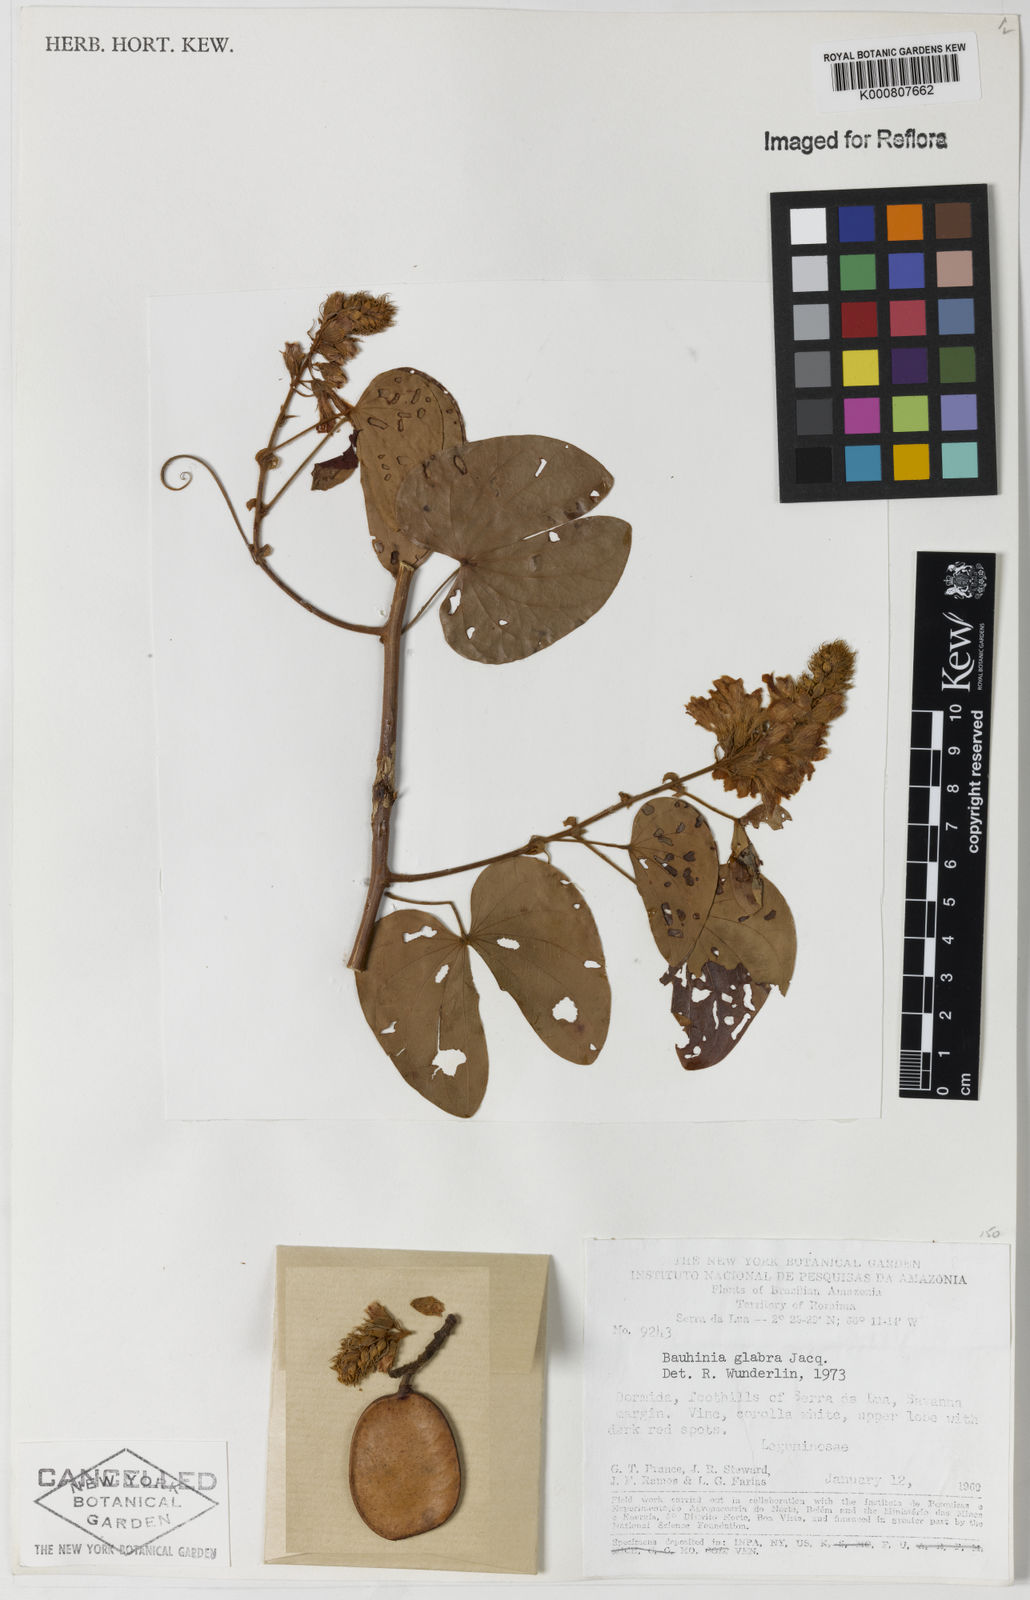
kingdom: Plantae
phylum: Tracheophyta
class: Magnoliopsida
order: Fabales
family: Fabaceae
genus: Schnella
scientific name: Schnella glabra
